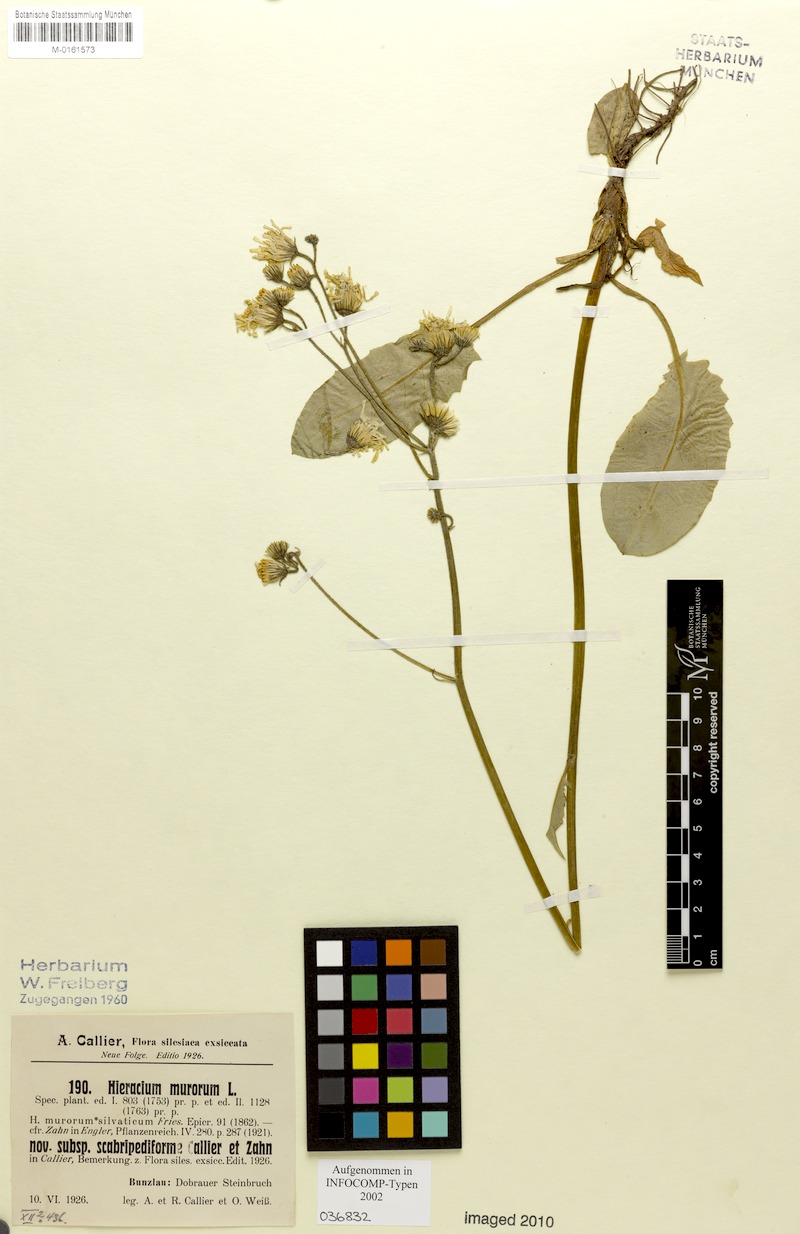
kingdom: Plantae
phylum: Tracheophyta
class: Magnoliopsida
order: Asterales
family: Asteraceae
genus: Hieracium
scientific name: Hieracium murorum
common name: Wall hawkweed
